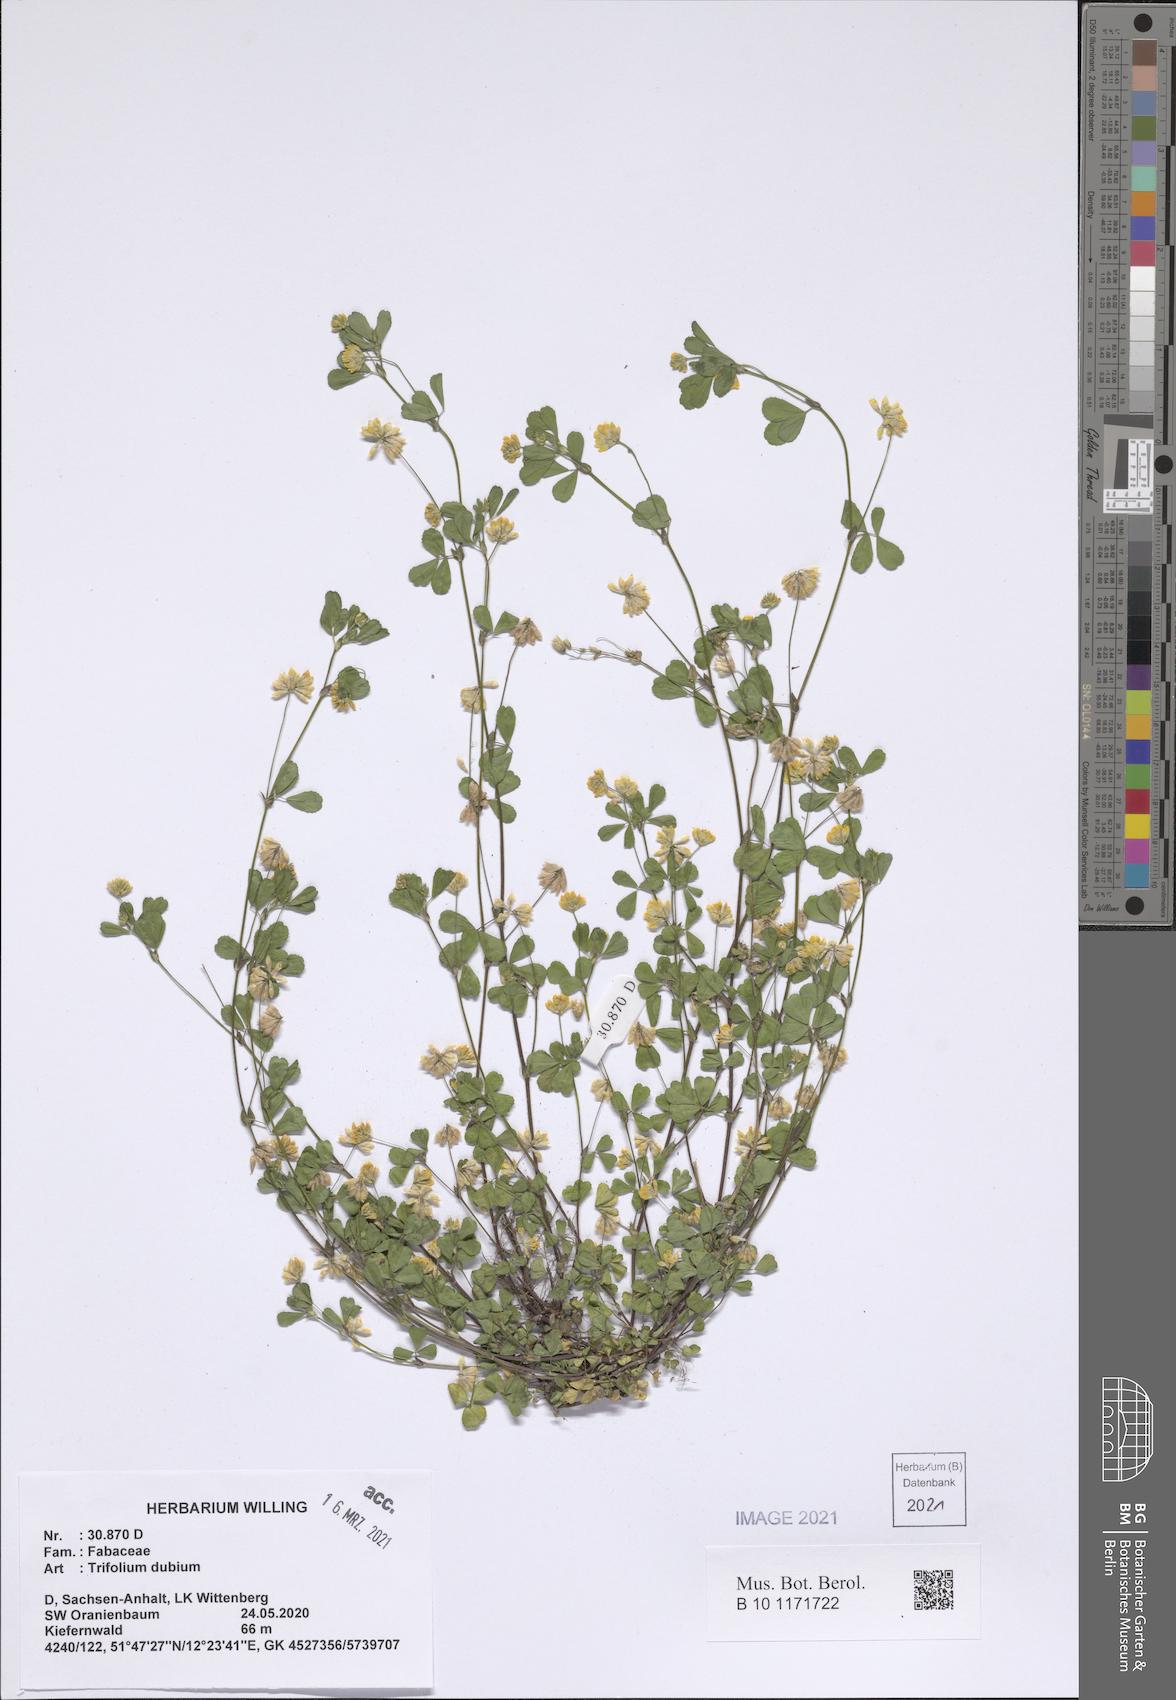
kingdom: Plantae
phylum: Tracheophyta
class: Magnoliopsida
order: Fabales
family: Fabaceae
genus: Trifolium
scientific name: Trifolium dubium
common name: Suckling clover
